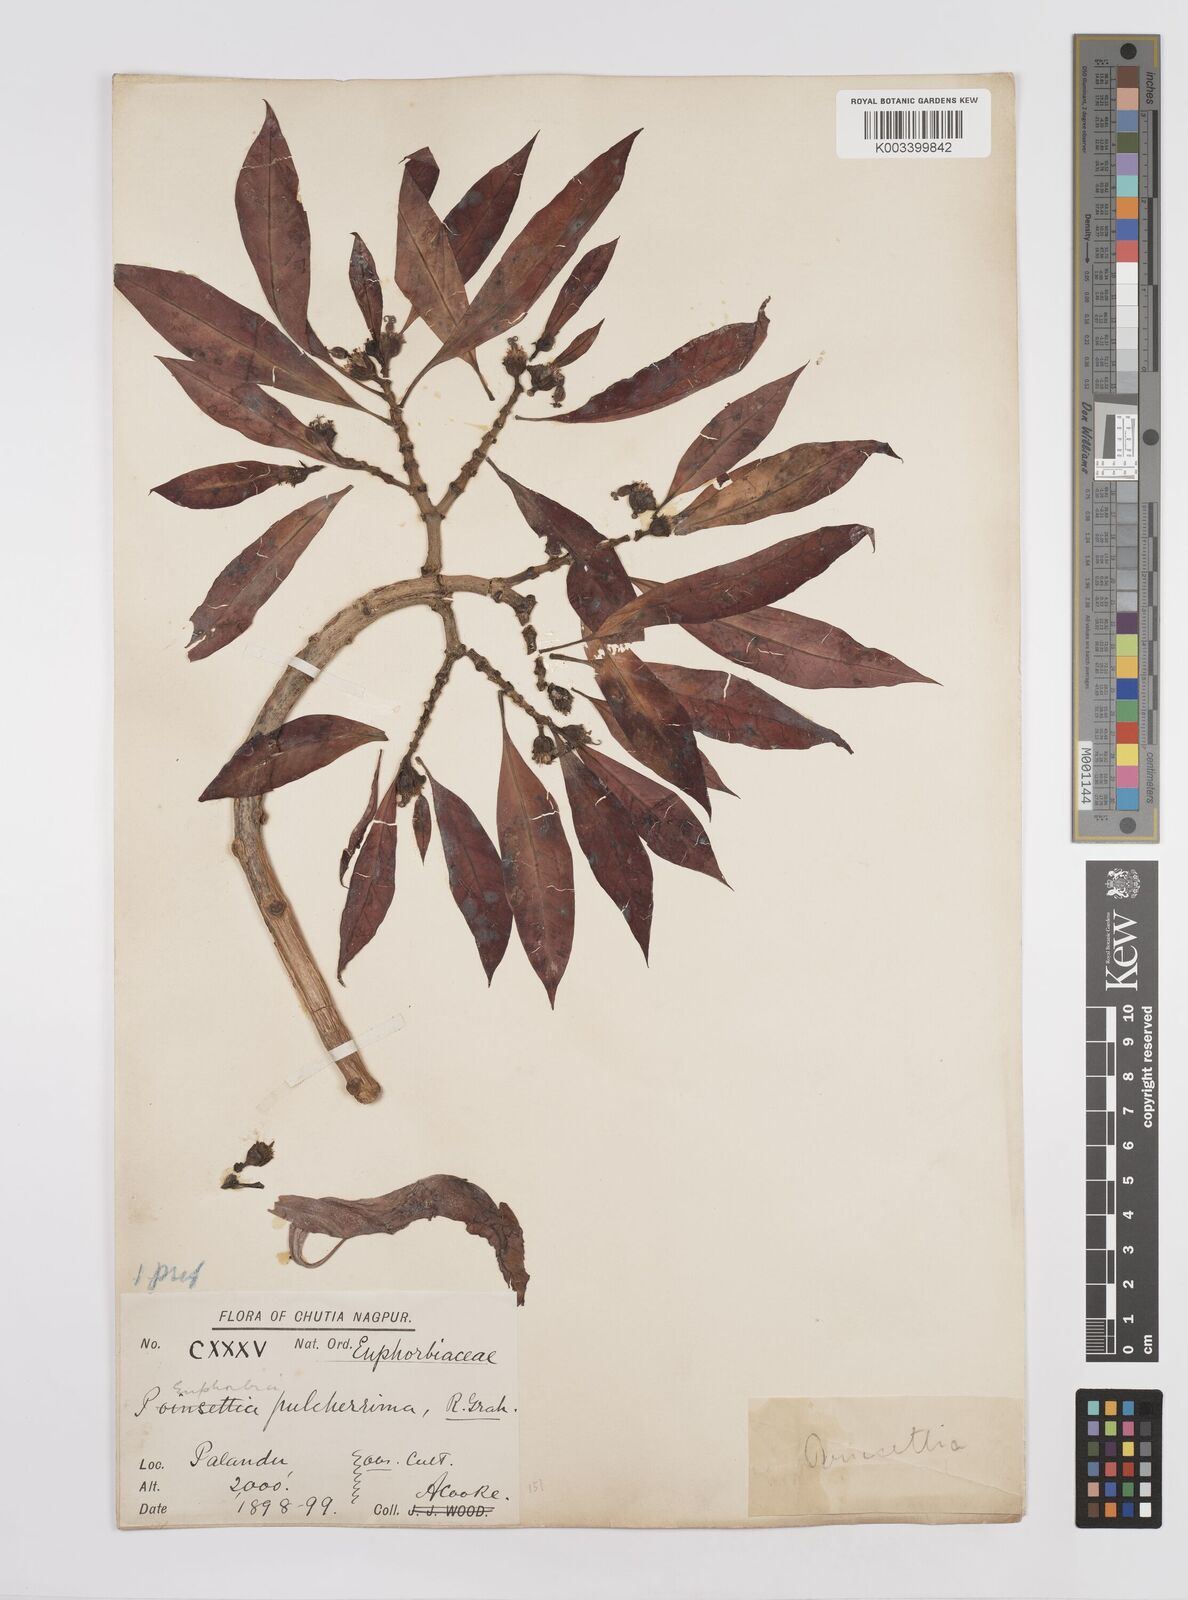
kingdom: Plantae
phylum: Tracheophyta
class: Magnoliopsida
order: Malpighiales
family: Euphorbiaceae
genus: Euphorbia
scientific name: Euphorbia pulcherrima
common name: Christmas-flower
